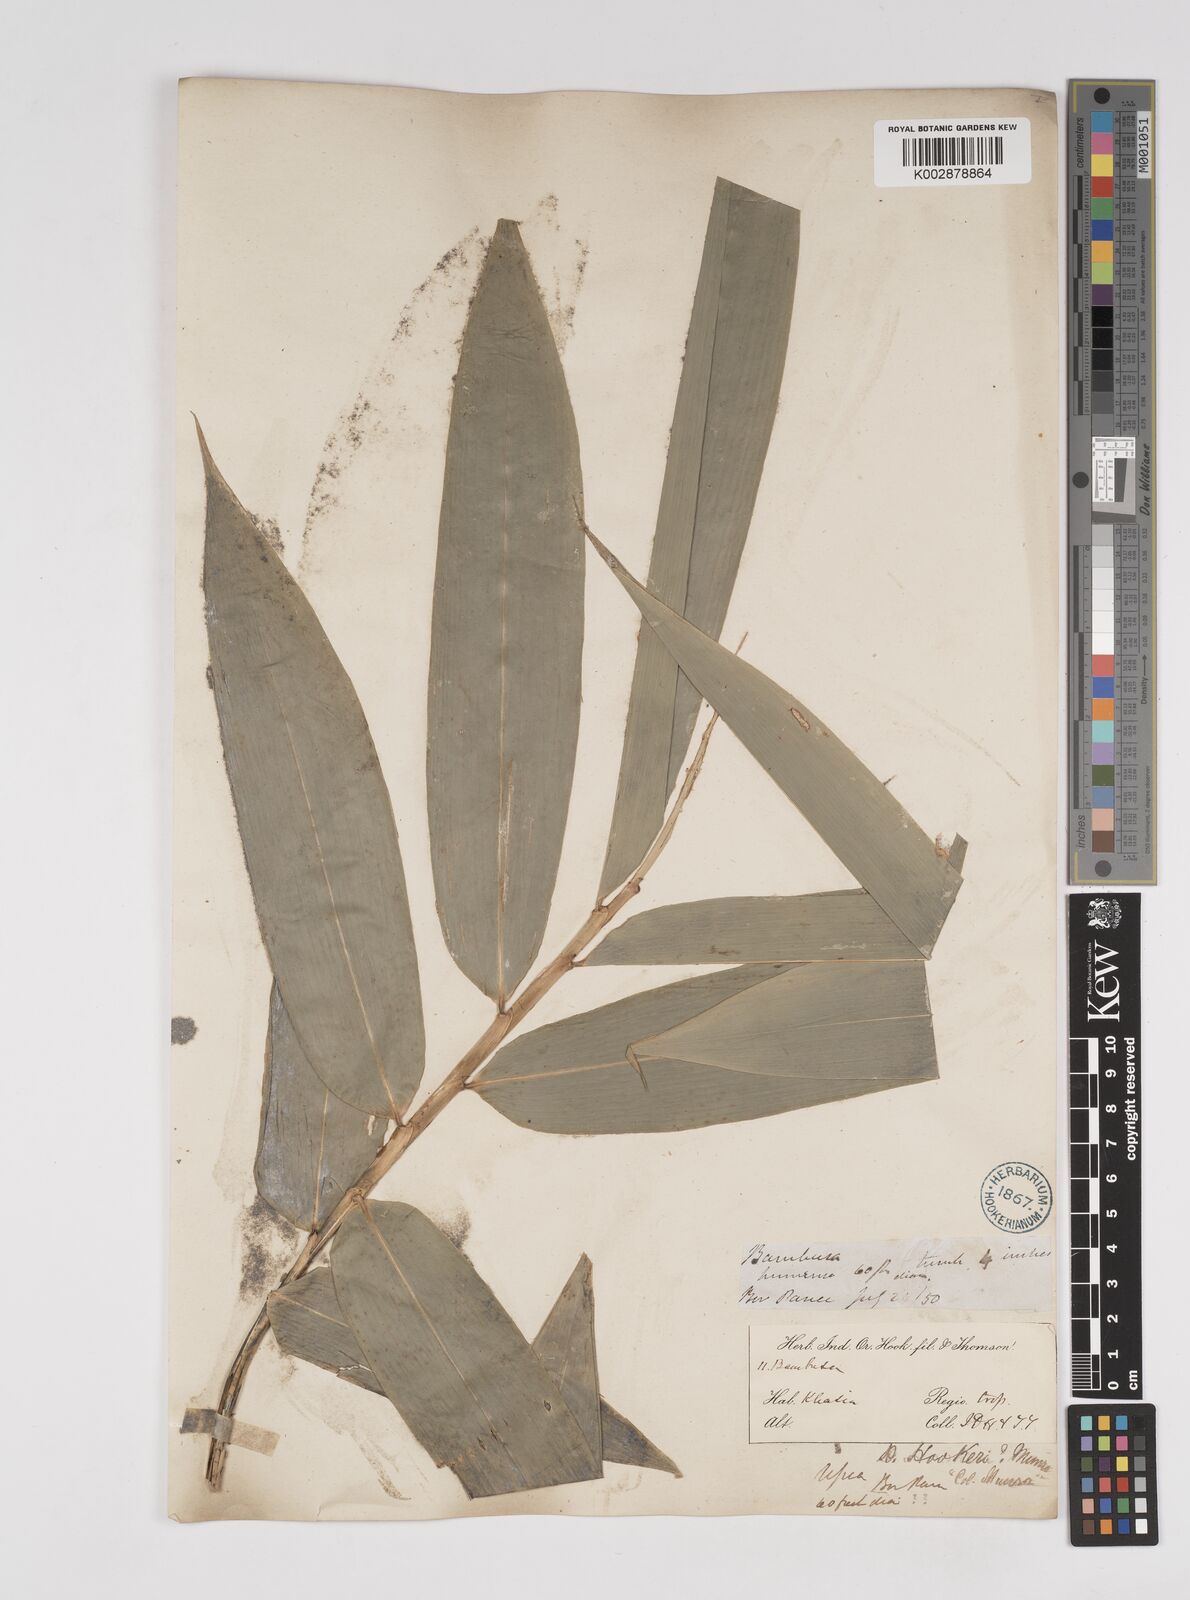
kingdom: Plantae
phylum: Tracheophyta
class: Liliopsida
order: Poales
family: Poaceae
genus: Dendrocalamus
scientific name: Dendrocalamus hookeri
